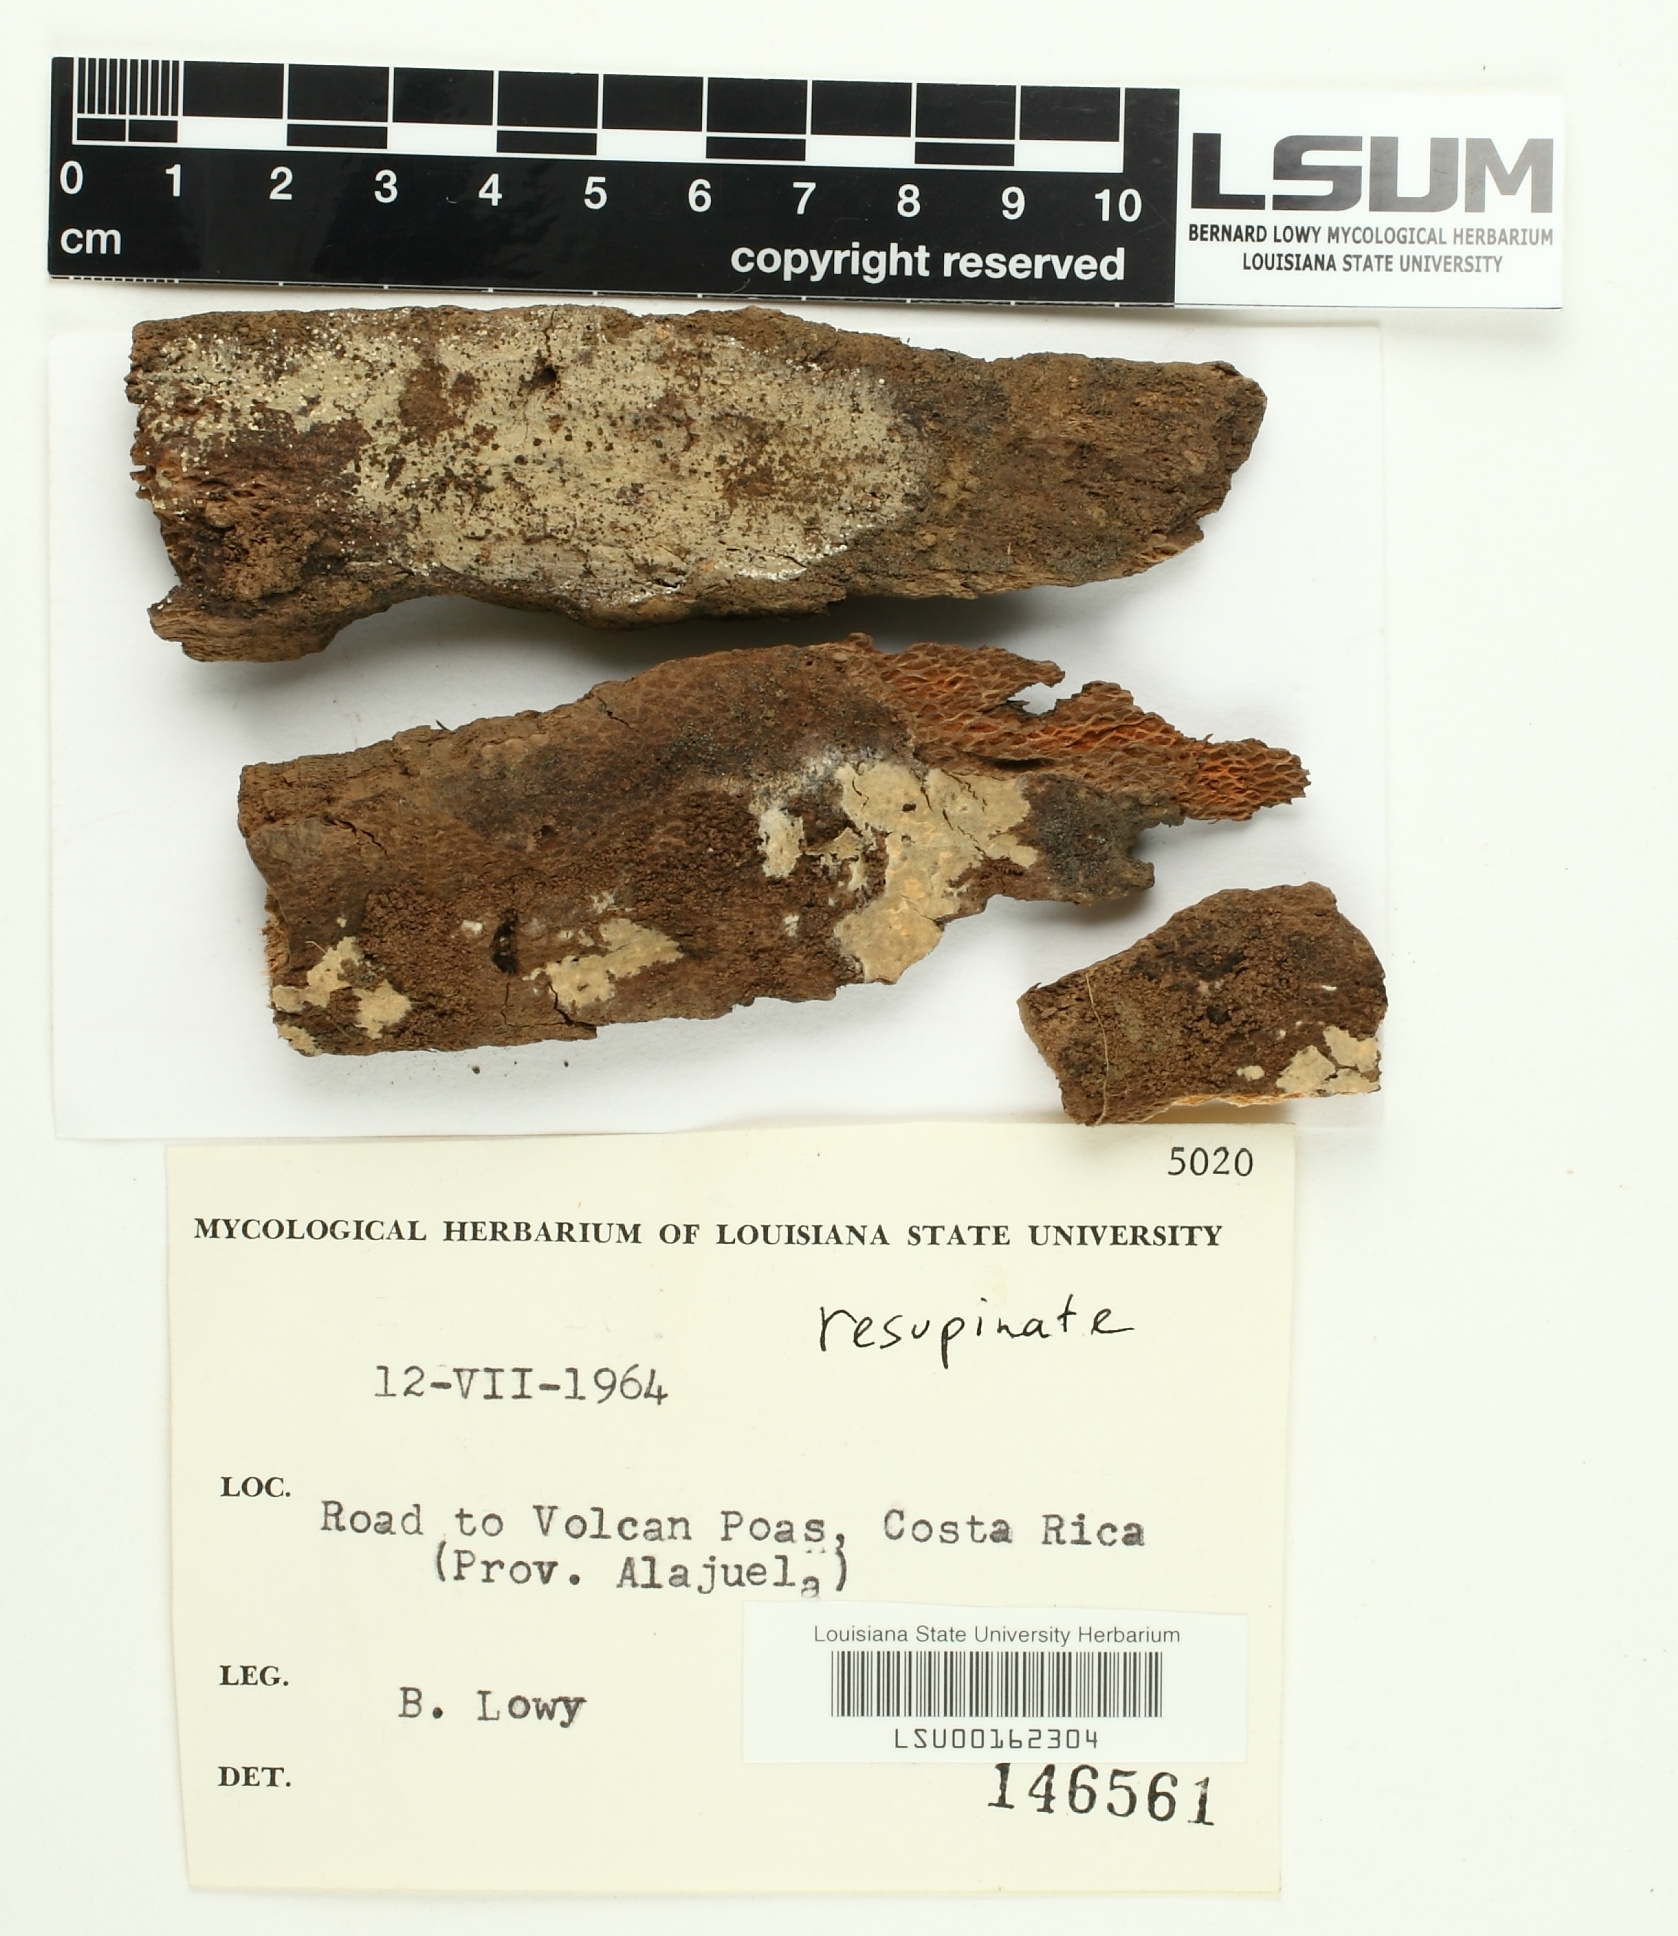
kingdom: Fungi
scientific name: Fungi
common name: Fungi
